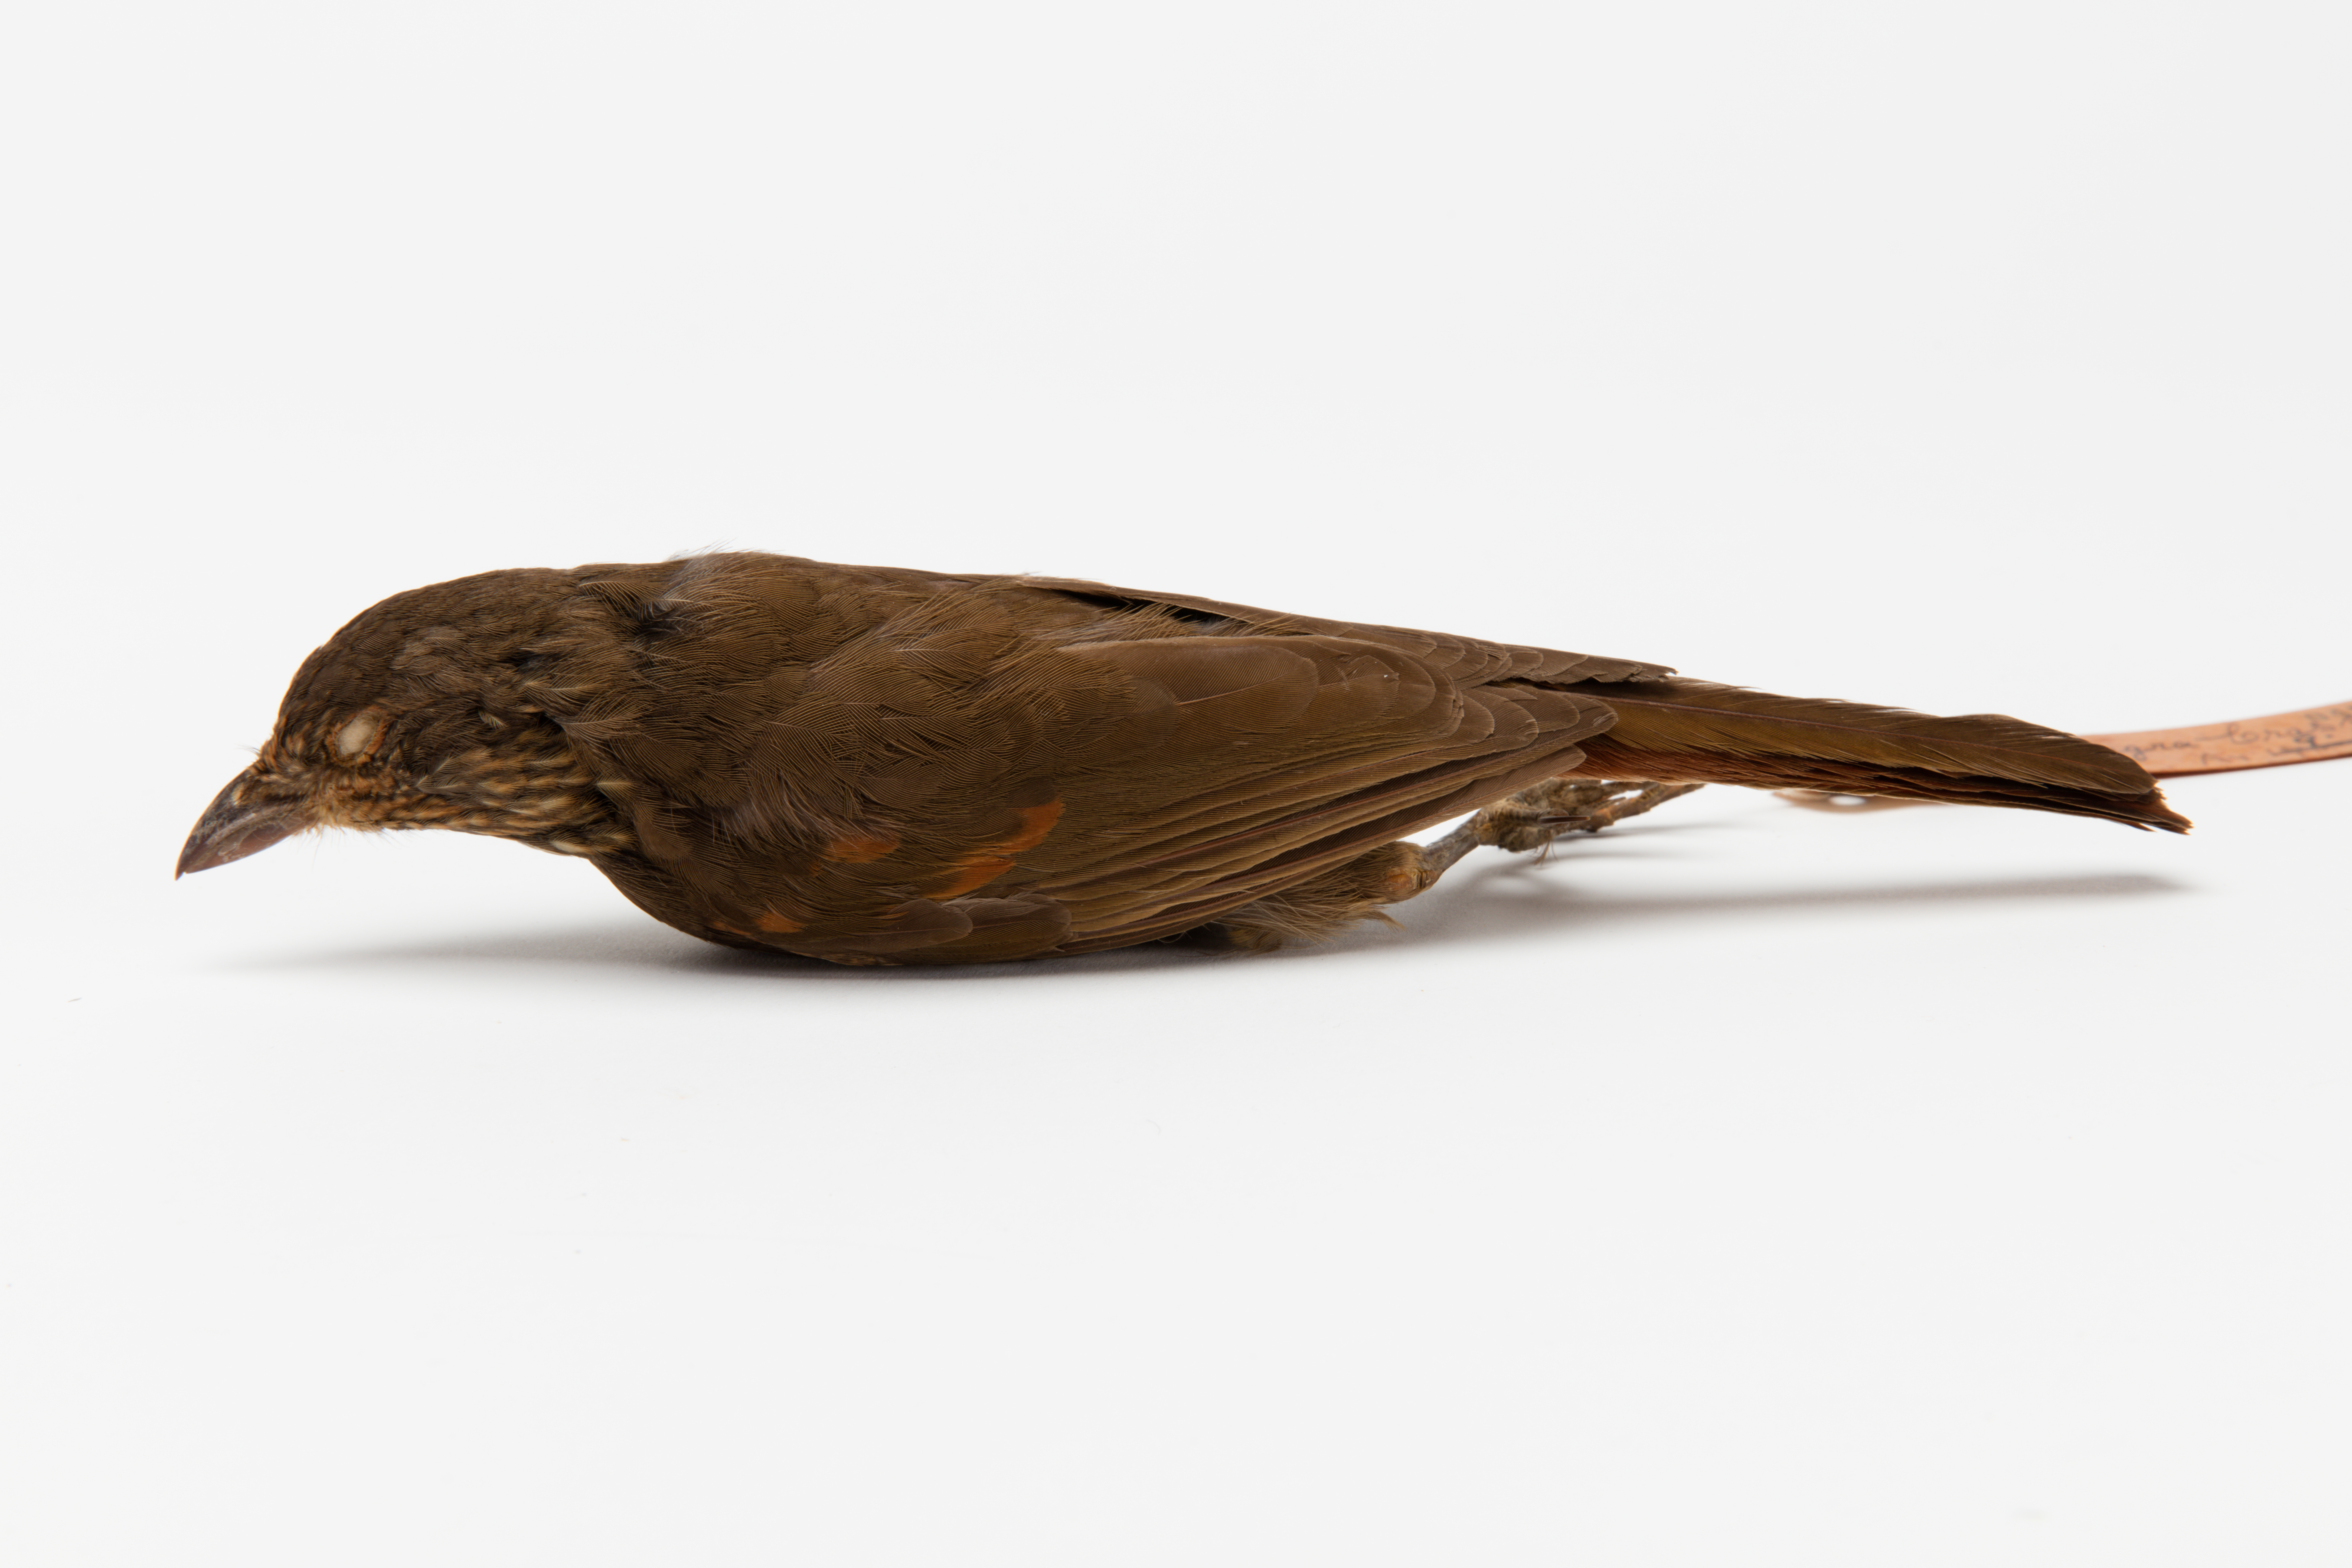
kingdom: Animalia
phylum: Chordata
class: Aves
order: Passeriformes
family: Ptilonorhynchidae
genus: Turnagra
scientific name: Turnagra capensis
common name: South island piopio
